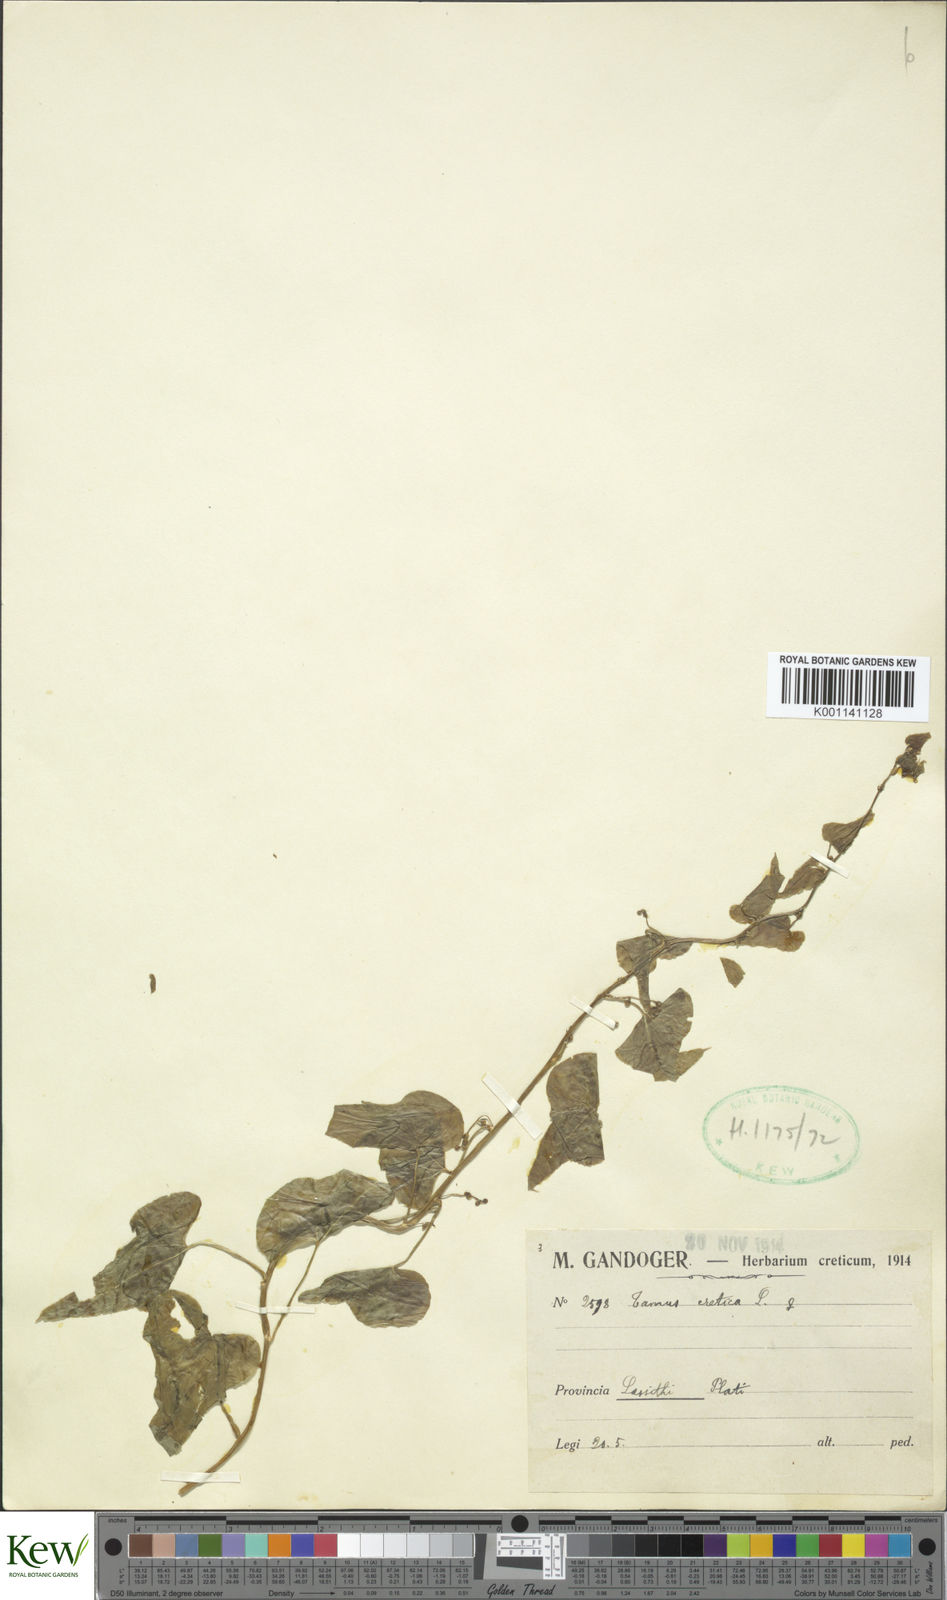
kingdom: Plantae
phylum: Tracheophyta
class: Liliopsida
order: Dioscoreales
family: Dioscoreaceae
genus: Dioscorea
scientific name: Dioscorea communis
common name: Black-bindweed
